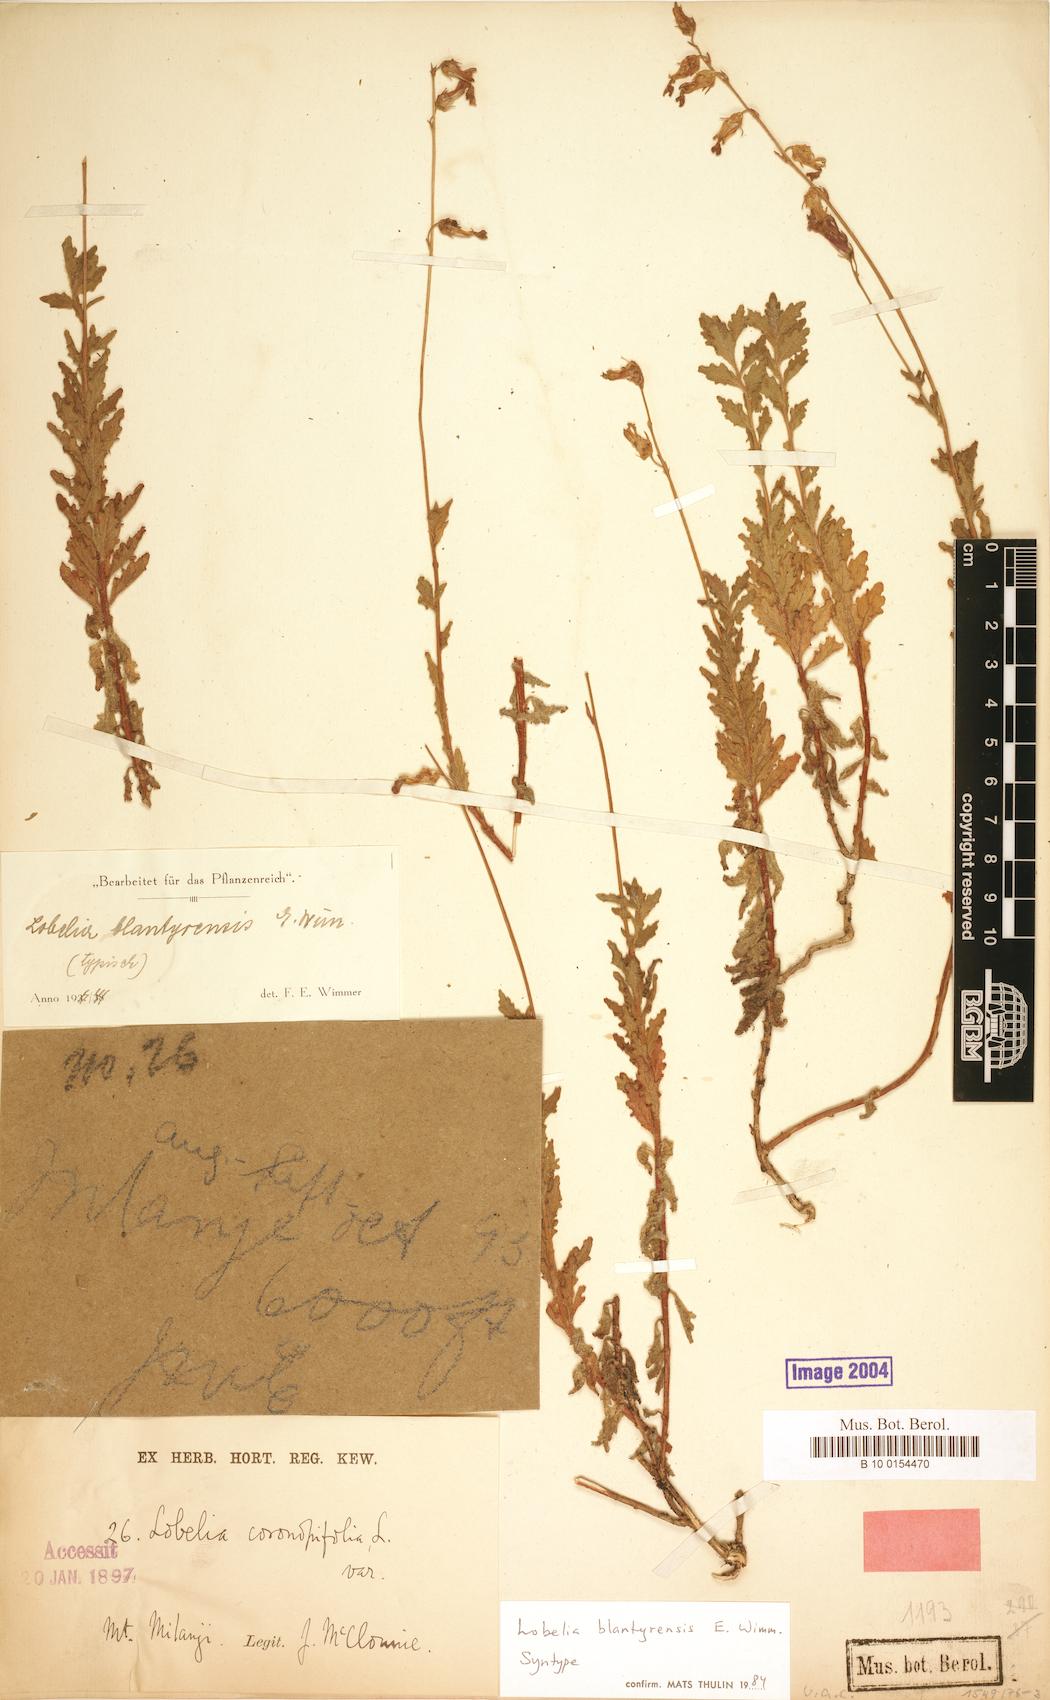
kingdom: Plantae
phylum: Tracheophyta
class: Magnoliopsida
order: Asterales
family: Campanulaceae
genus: Lobelia
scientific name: Lobelia blantyrensis
